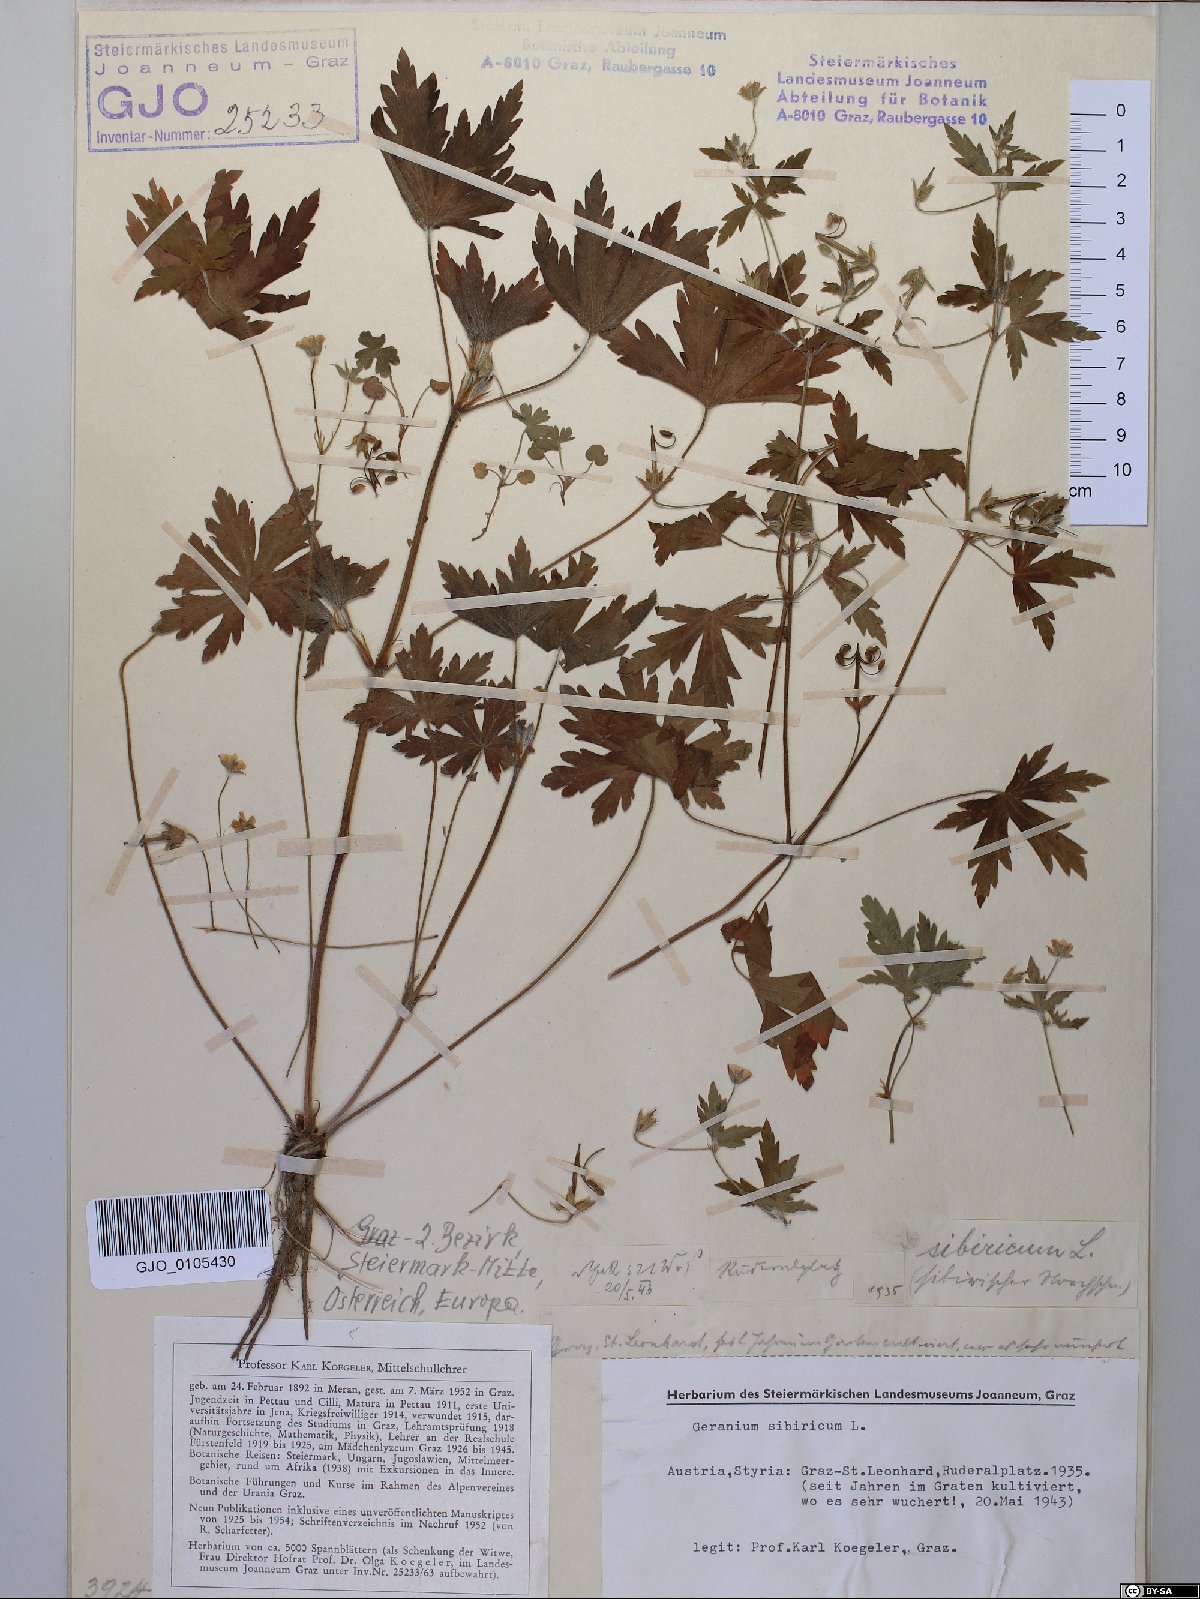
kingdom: Plantae
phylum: Tracheophyta
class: Magnoliopsida
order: Geraniales
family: Geraniaceae
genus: Geranium
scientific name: Geranium sibiricum
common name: Siberian crane's-bill
